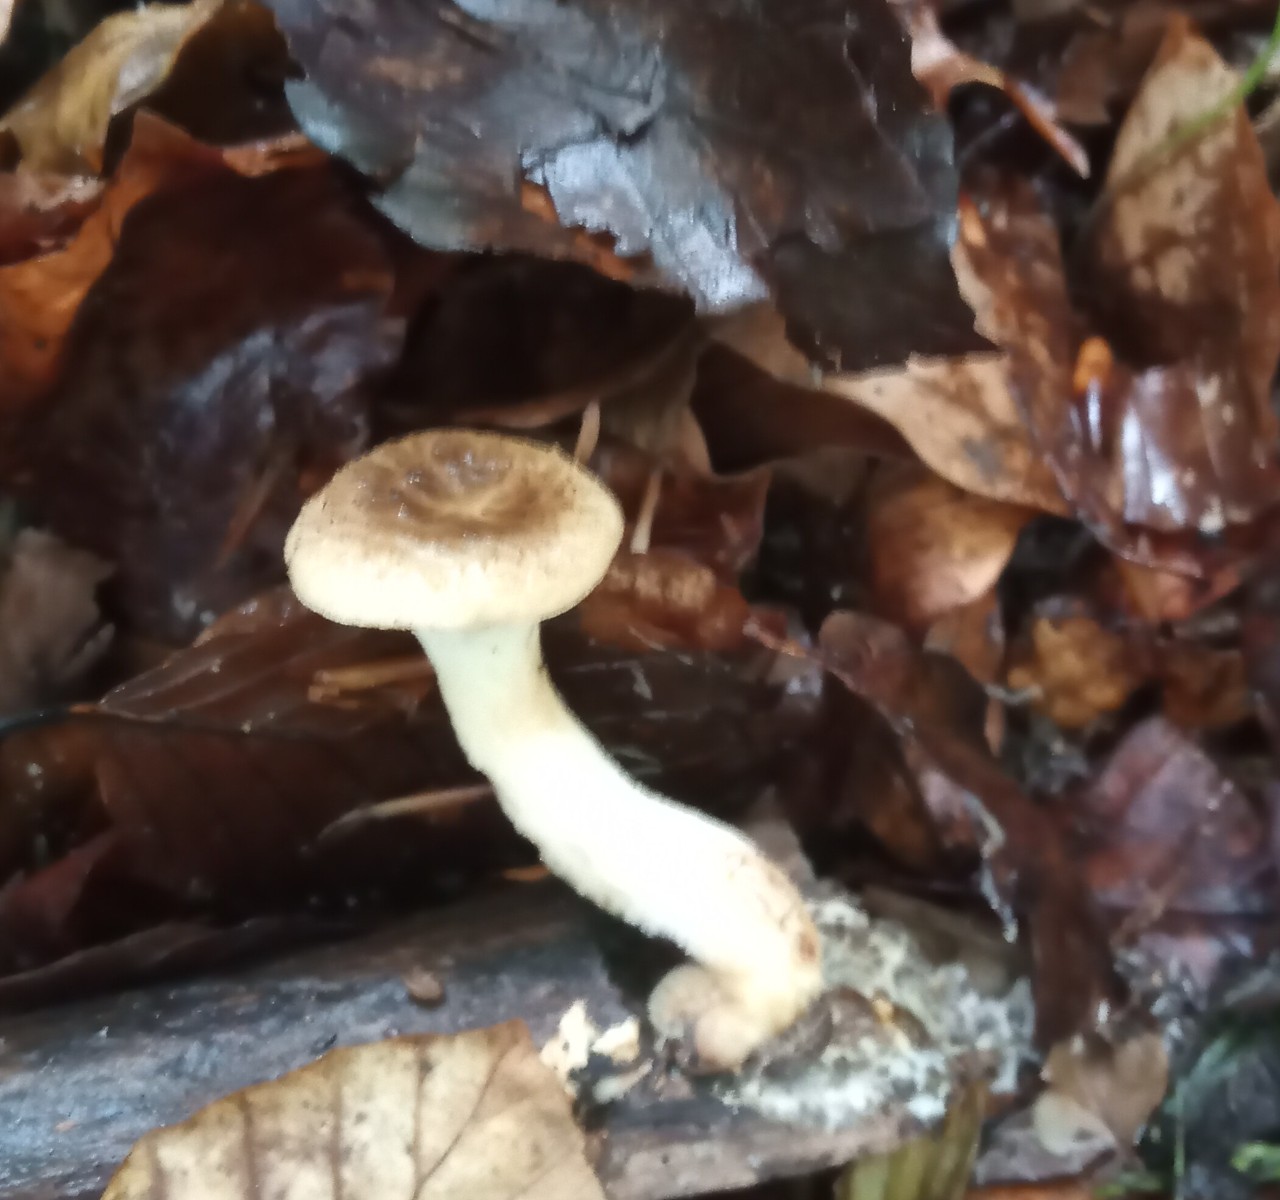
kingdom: Fungi
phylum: Basidiomycota
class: Agaricomycetes
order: Polyporales
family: Polyporaceae
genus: Polyporus
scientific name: Polyporus tuberaster
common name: knoldet stilkporesvamp
